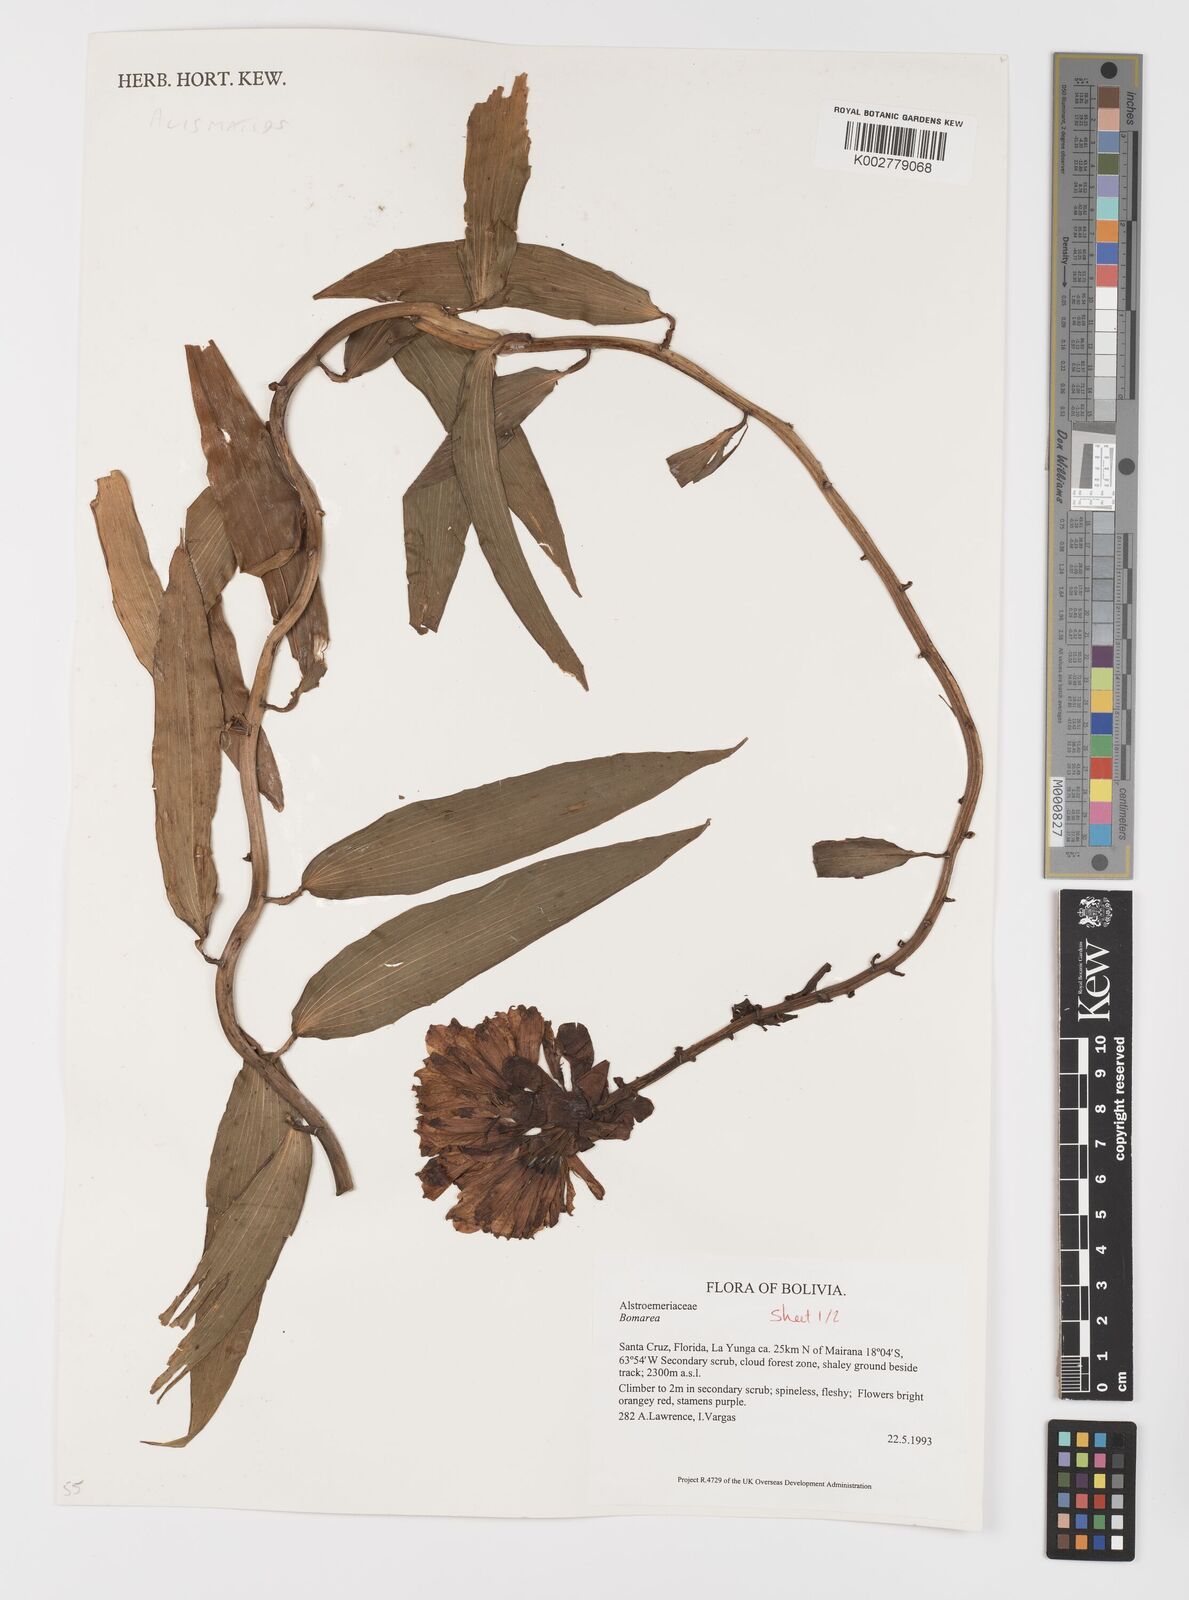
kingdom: Plantae
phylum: Tracheophyta
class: Liliopsida
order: Liliales
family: Alstroemeriaceae
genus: Bomarea
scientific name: Bomarea
